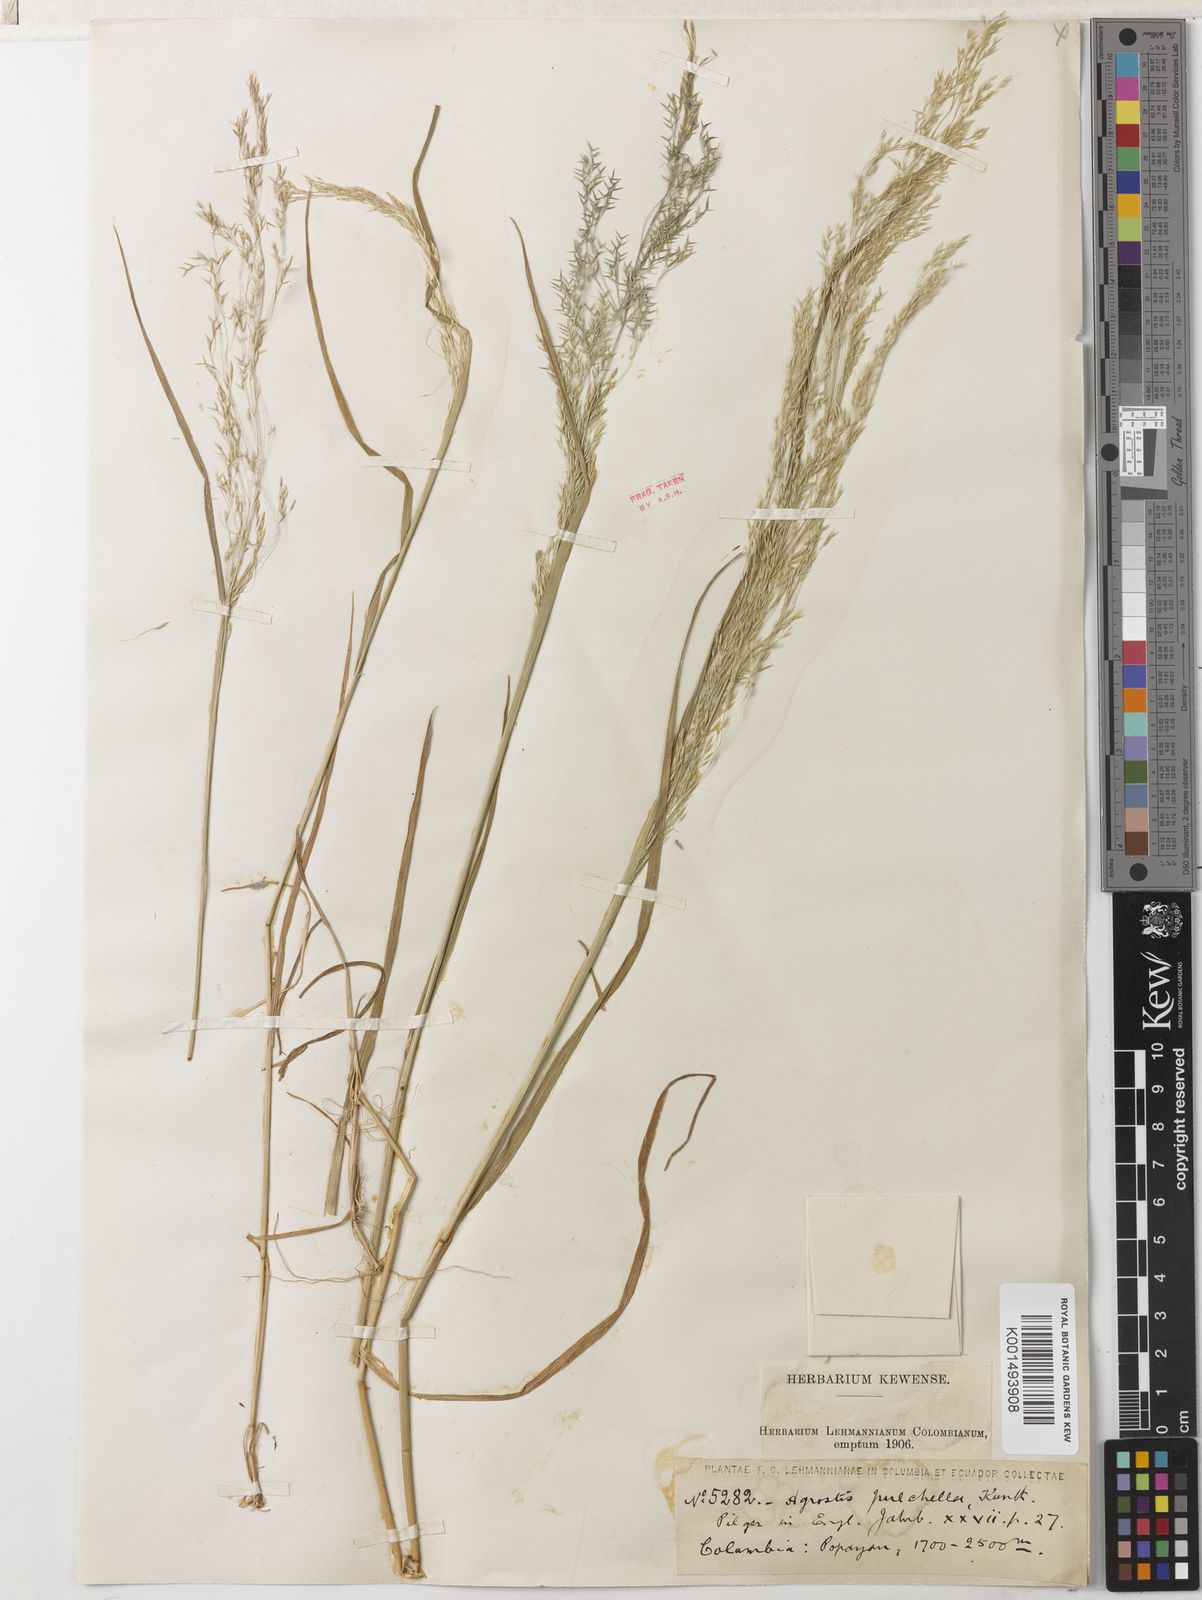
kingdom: Plantae
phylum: Tracheophyta
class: Liliopsida
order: Poales
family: Poaceae
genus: Agrostis
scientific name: Agrostis perennans
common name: Autumn bent
